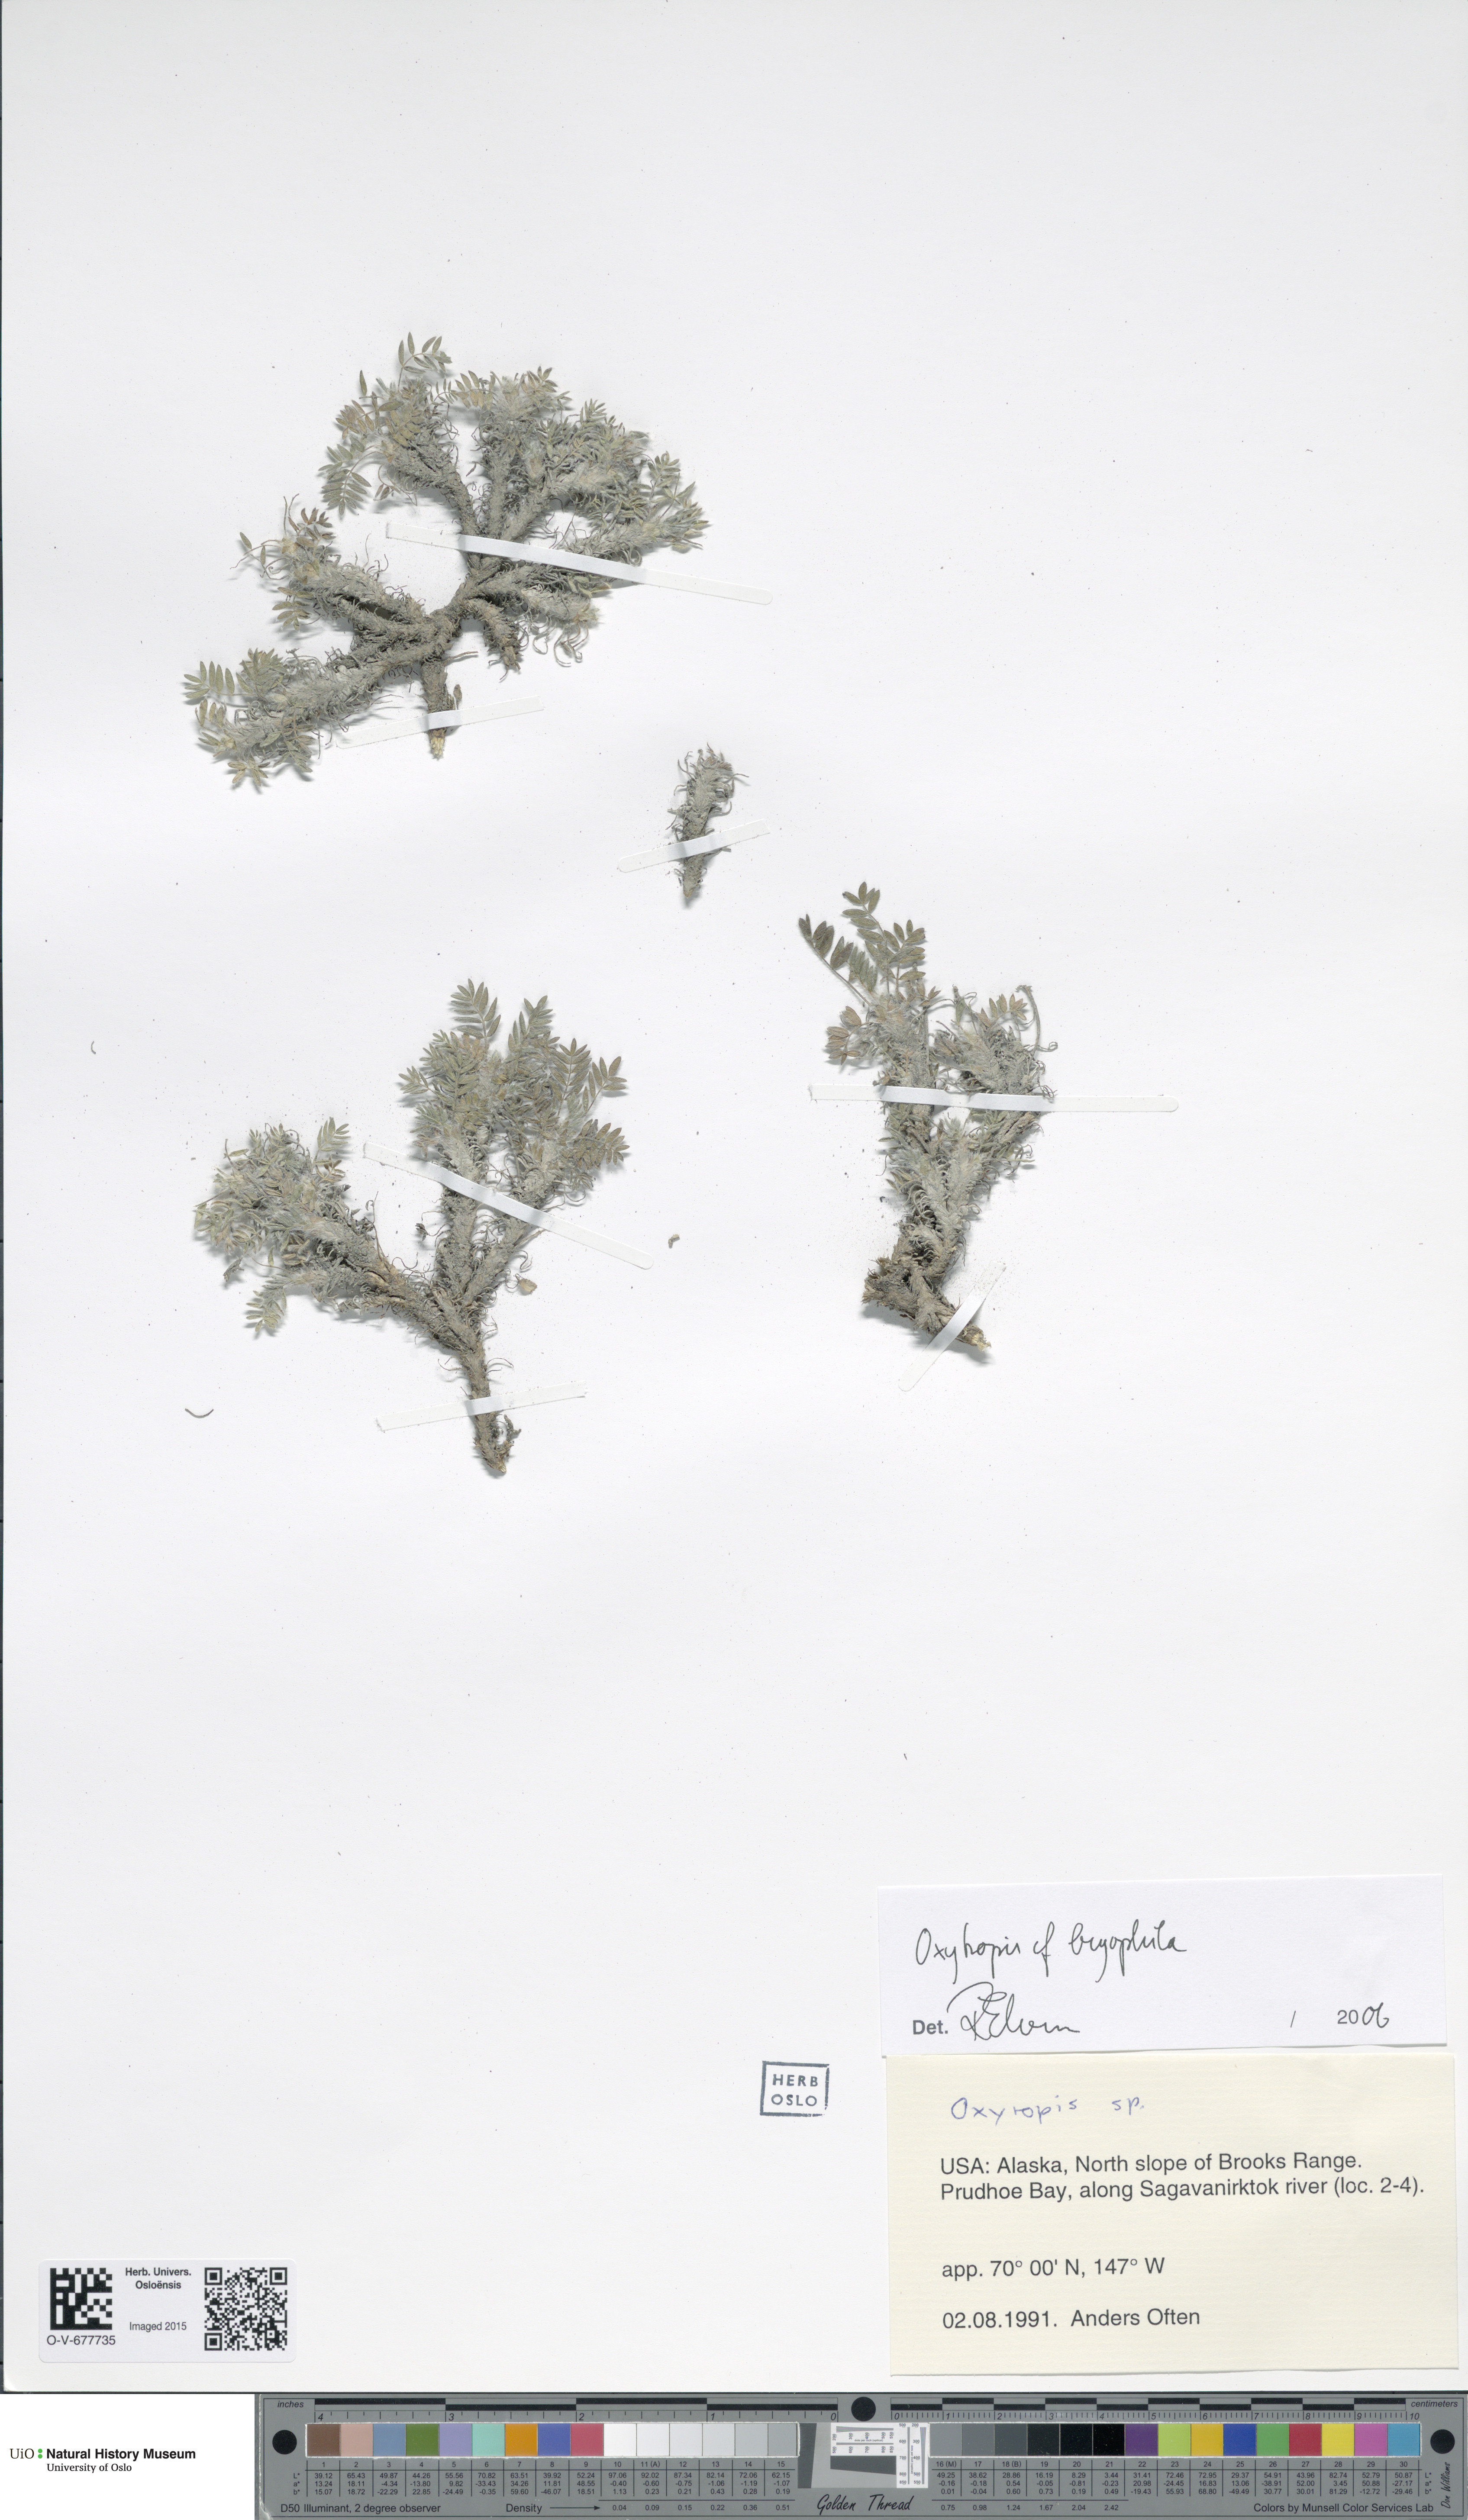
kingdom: Plantae
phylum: Tracheophyta
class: Magnoliopsida
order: Fabales
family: Fabaceae
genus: Oxytropis
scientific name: Oxytropis bryophila
